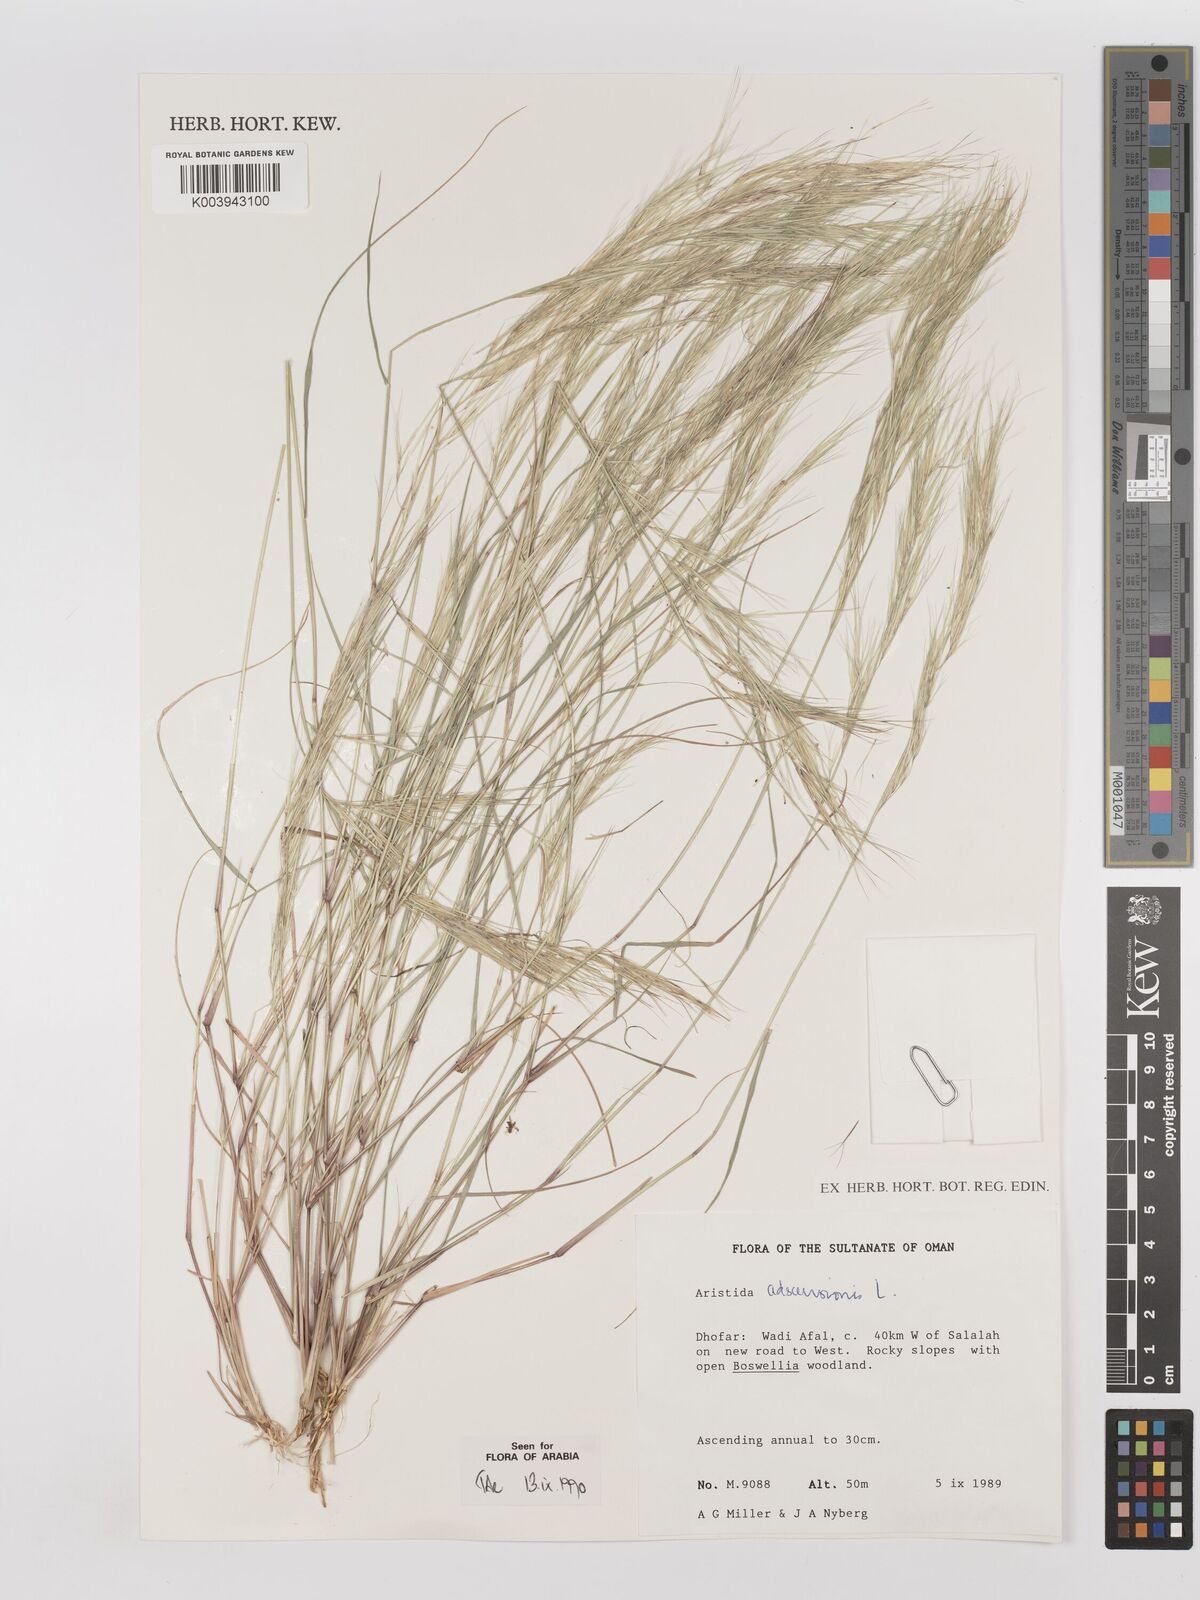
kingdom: Plantae
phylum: Tracheophyta
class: Liliopsida
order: Poales
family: Poaceae
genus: Aristida
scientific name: Aristida adscensionis
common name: Sixweeks threeawn
